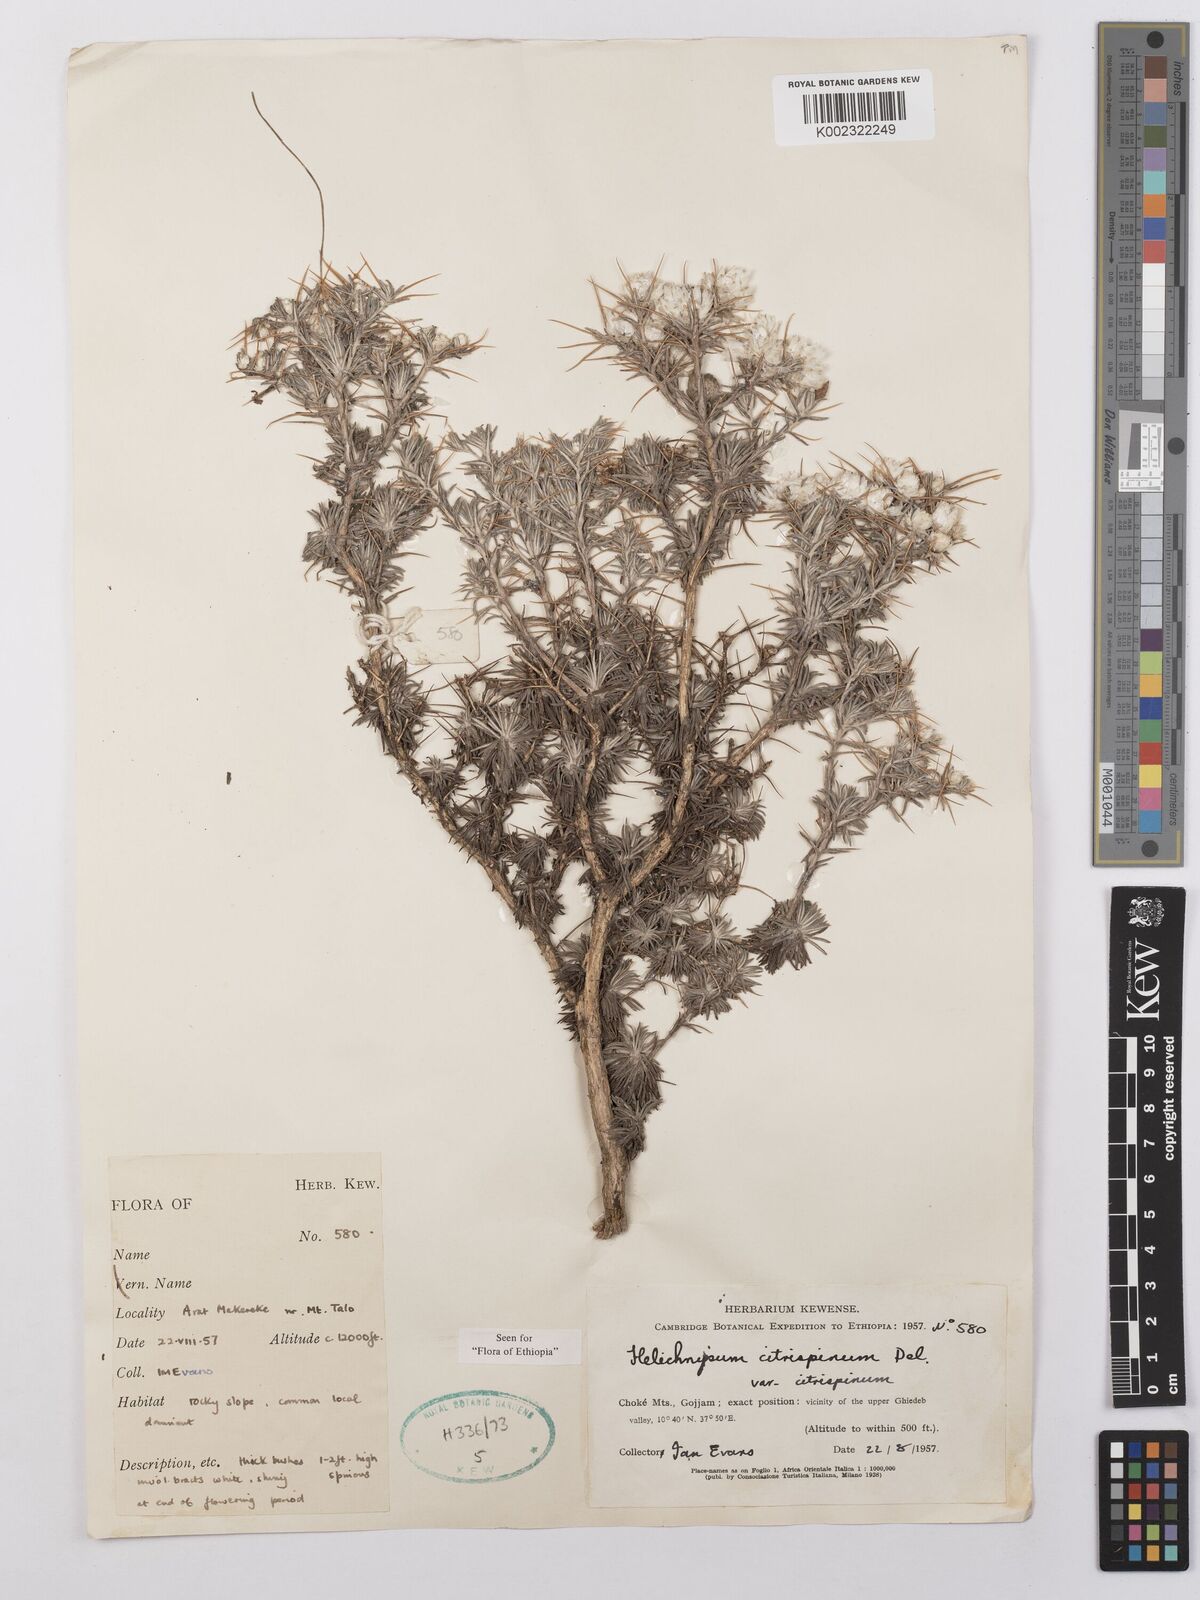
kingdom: Plantae
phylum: Tracheophyta
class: Magnoliopsida
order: Asterales
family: Asteraceae
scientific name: Asteraceae
